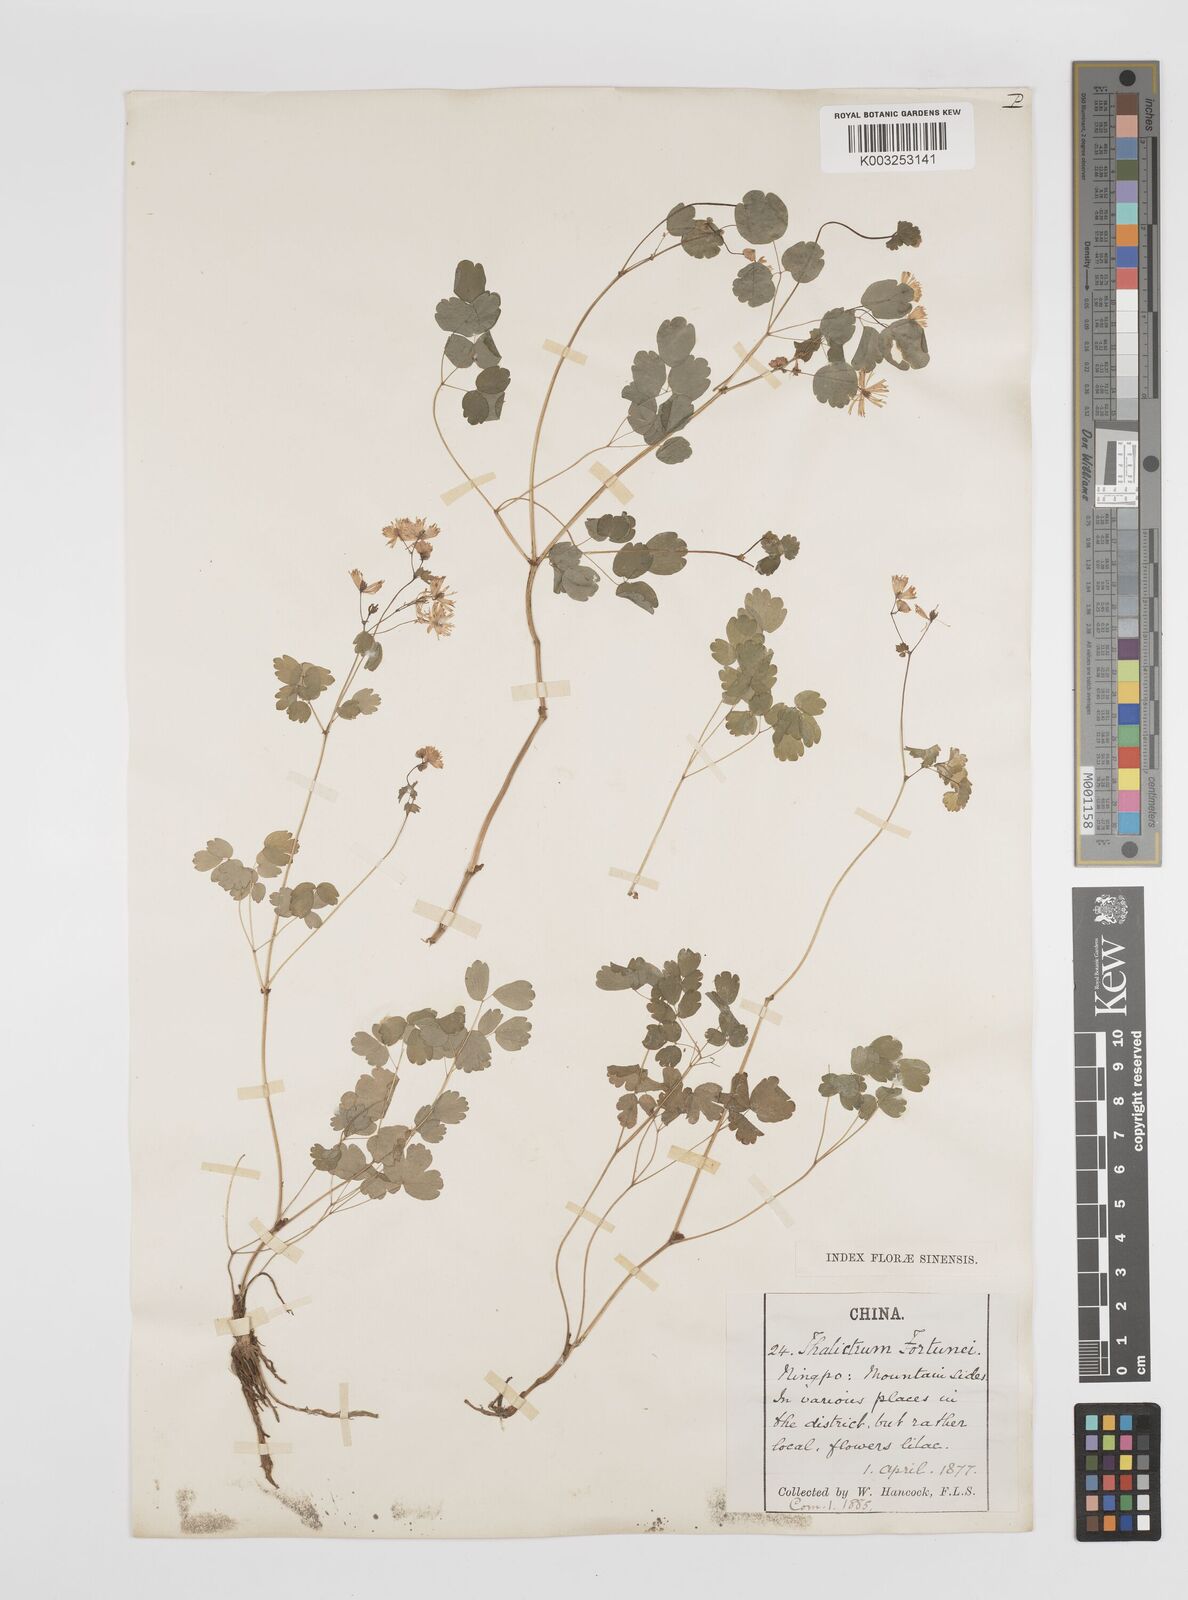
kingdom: Plantae
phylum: Tracheophyta
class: Magnoliopsida
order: Ranunculales
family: Ranunculaceae
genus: Thalictrum
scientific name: Thalictrum fortunei
